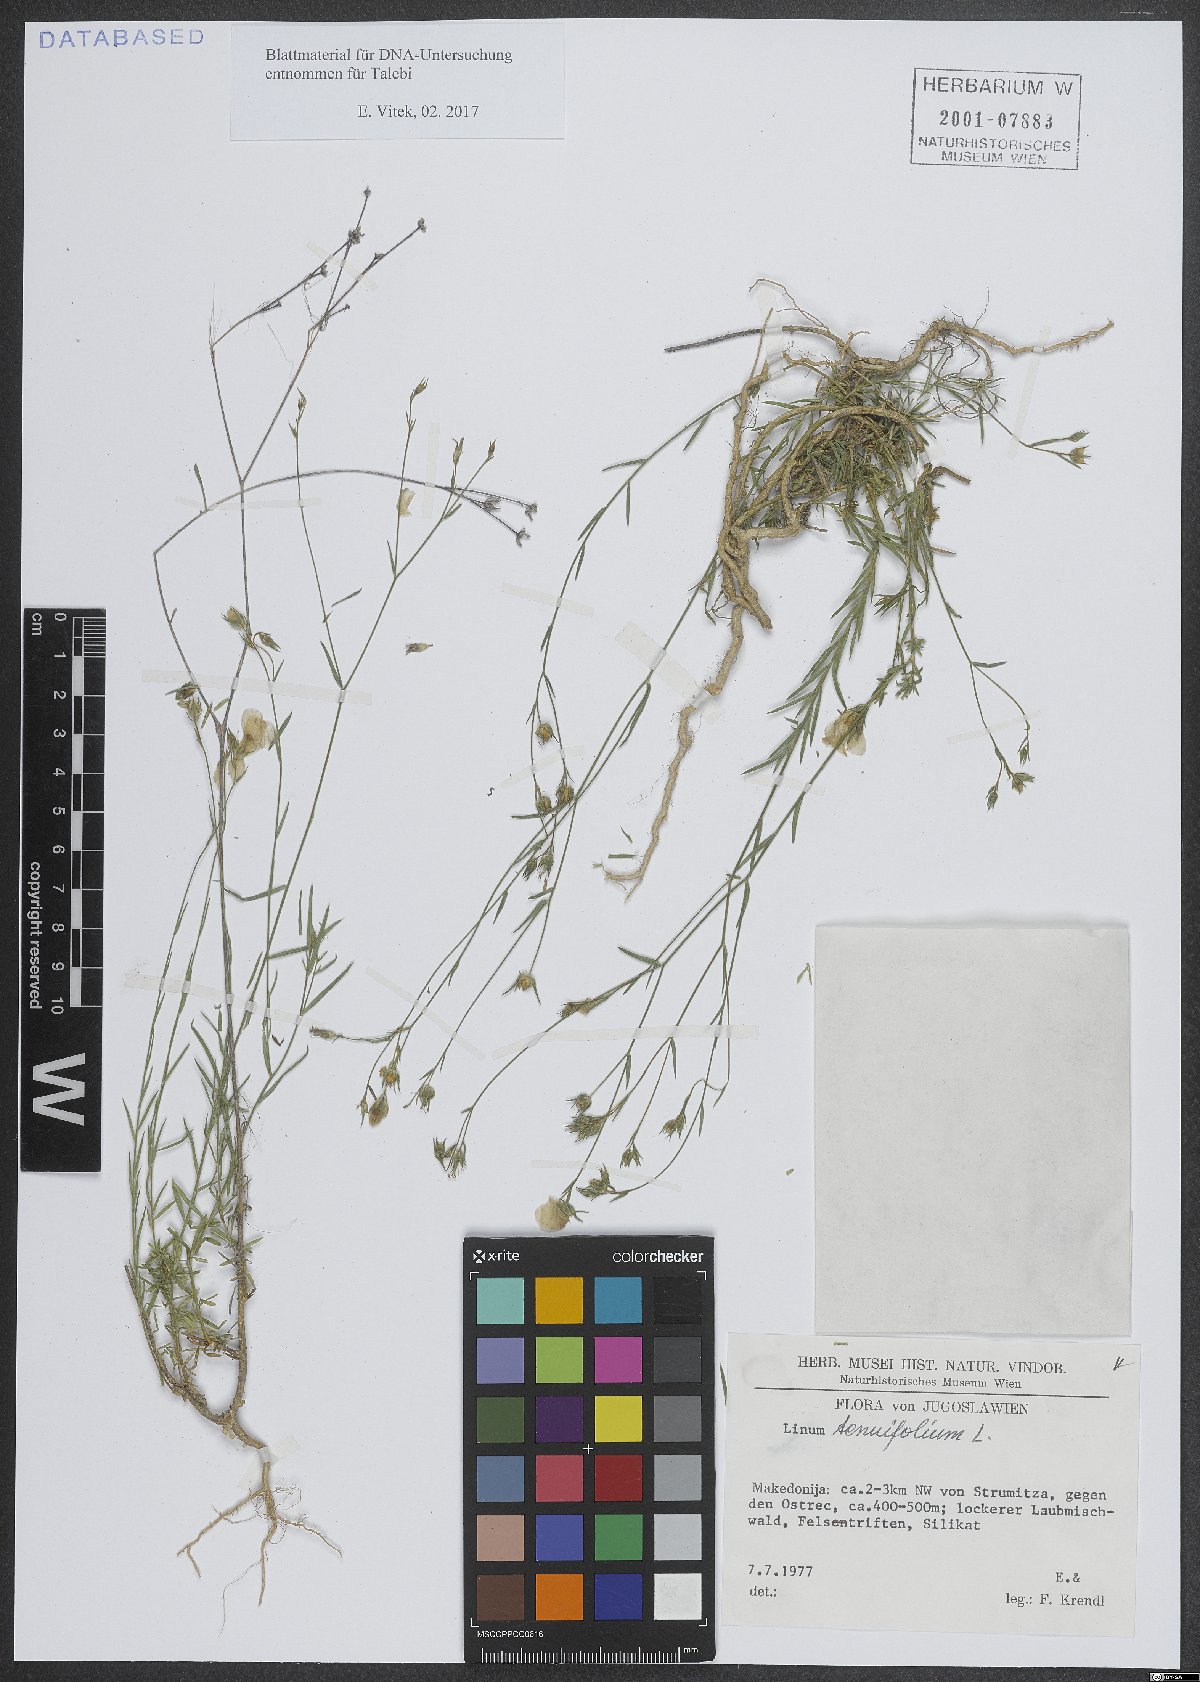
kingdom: Plantae
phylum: Tracheophyta
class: Magnoliopsida
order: Malpighiales
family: Linaceae
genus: Linum
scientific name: Linum tenuifolium
